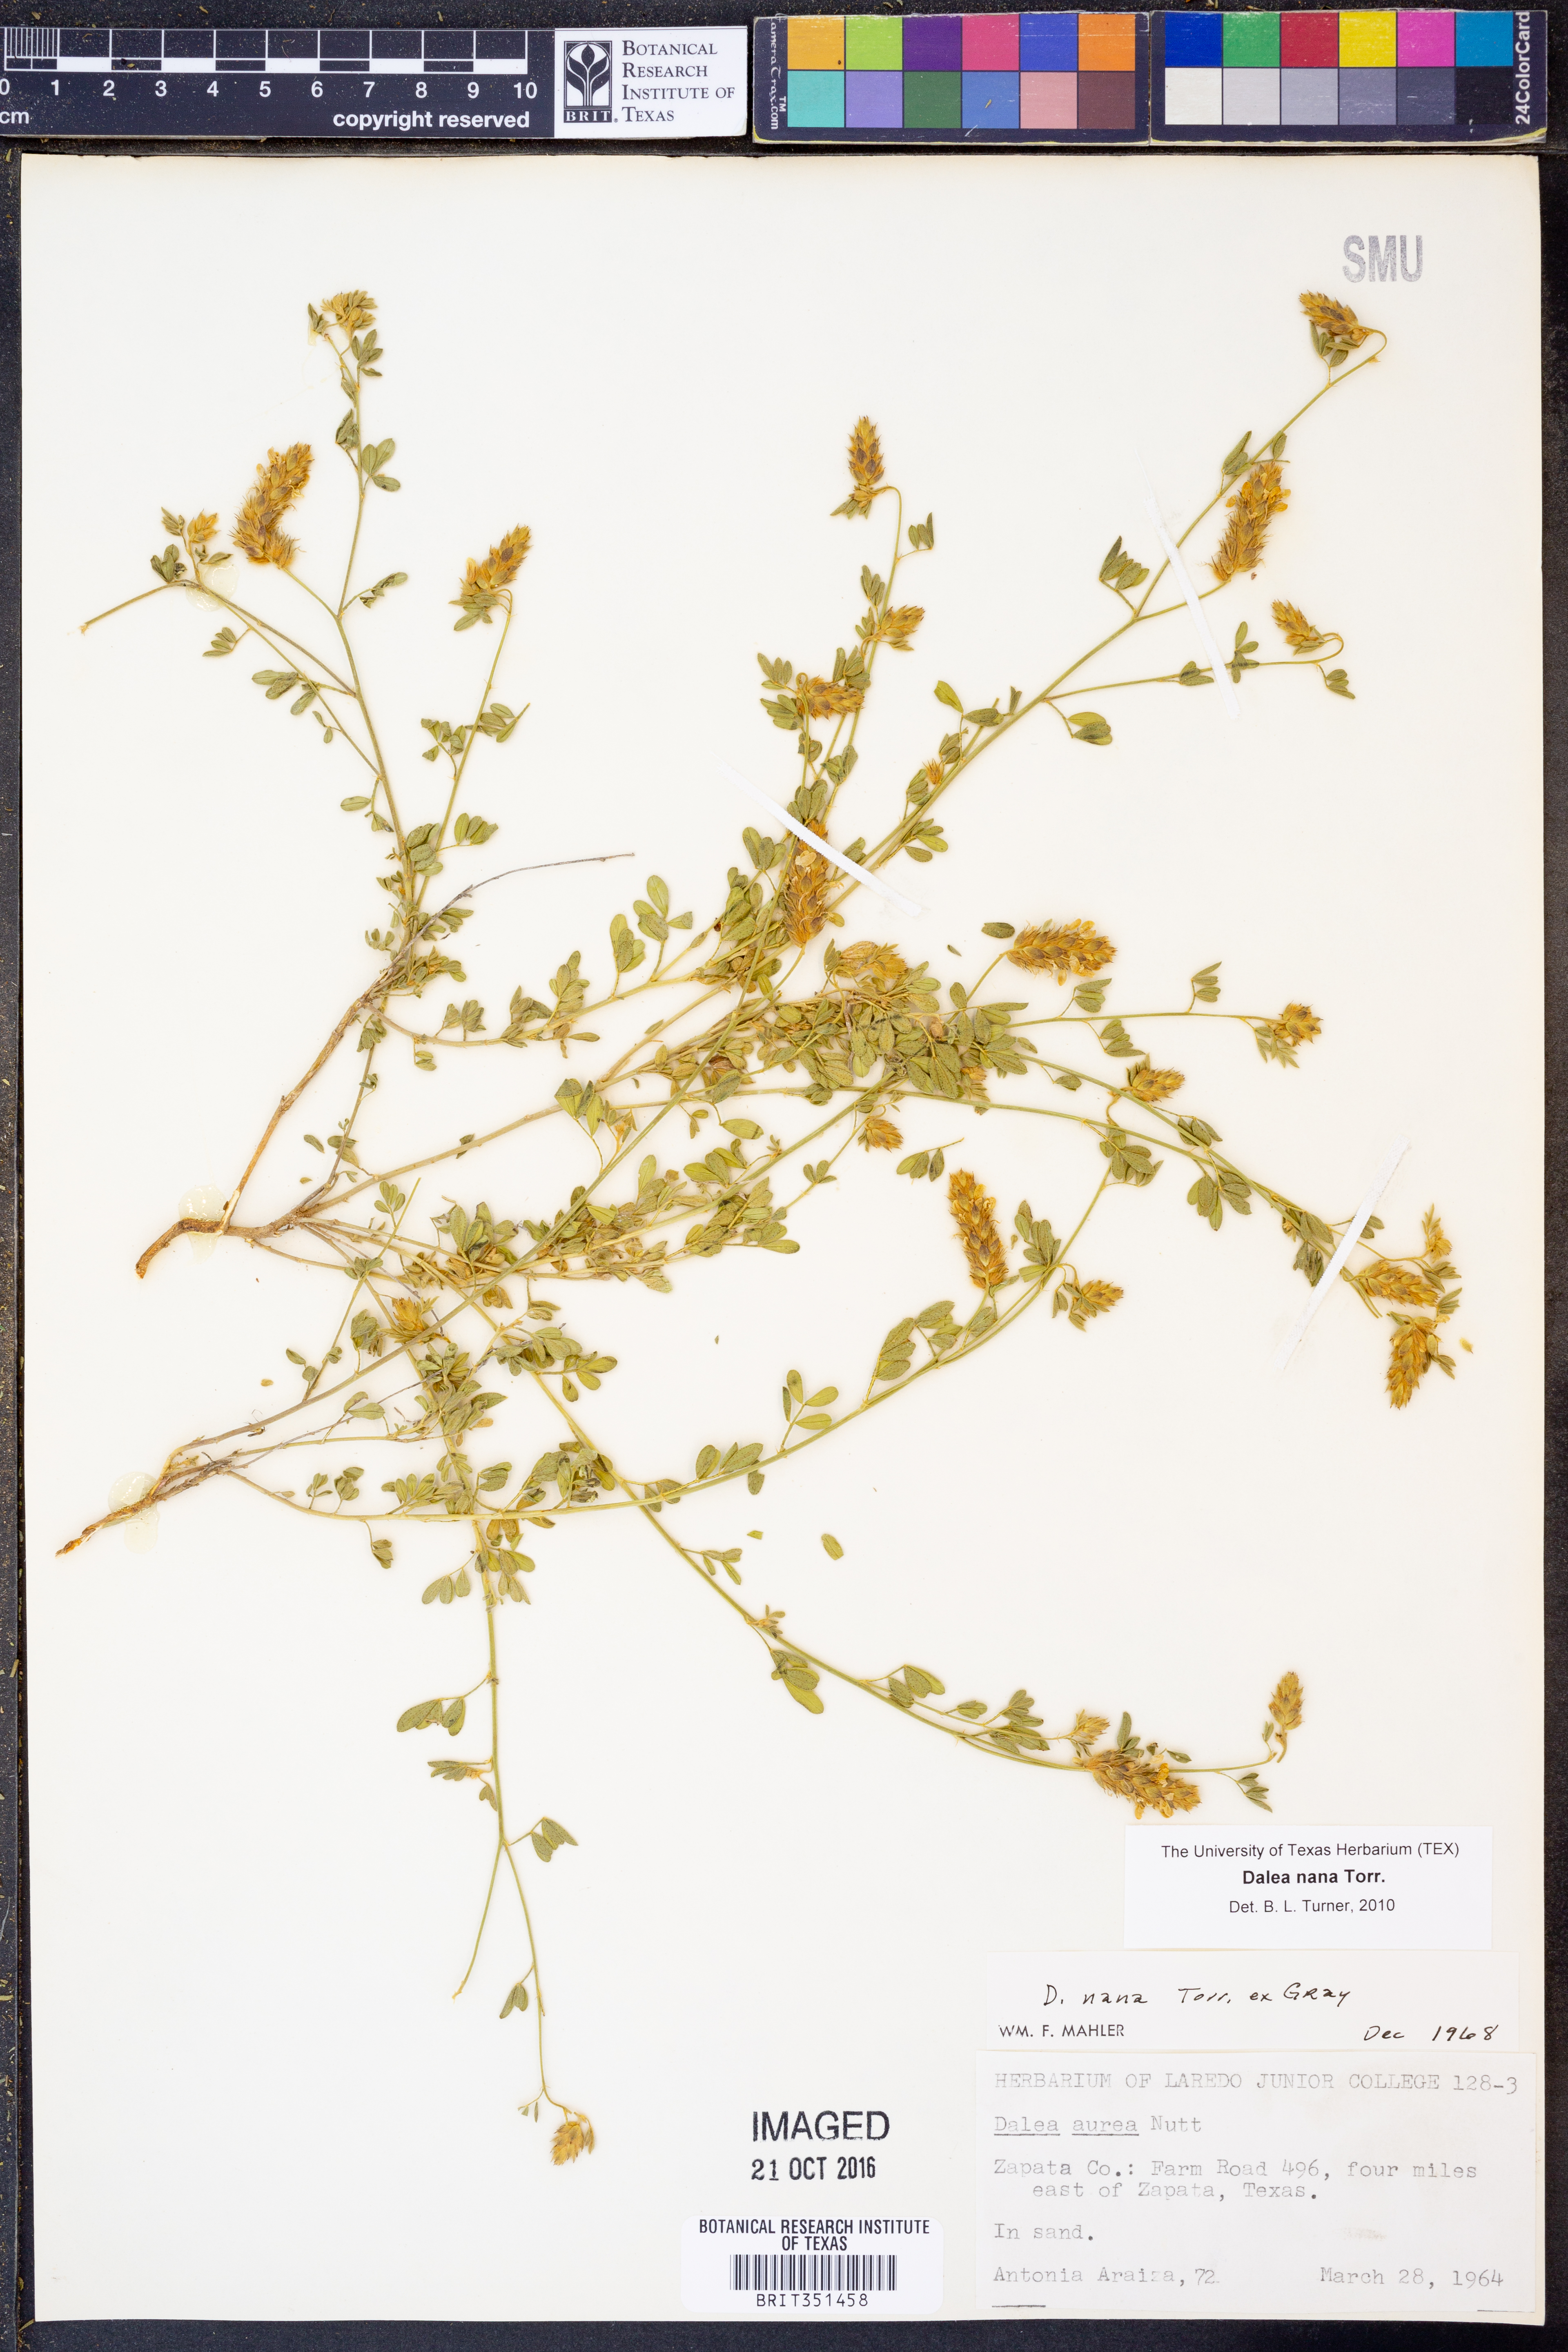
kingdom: Plantae
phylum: Tracheophyta
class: Magnoliopsida
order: Fabales
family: Fabaceae
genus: Dalea
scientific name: Dalea nana
